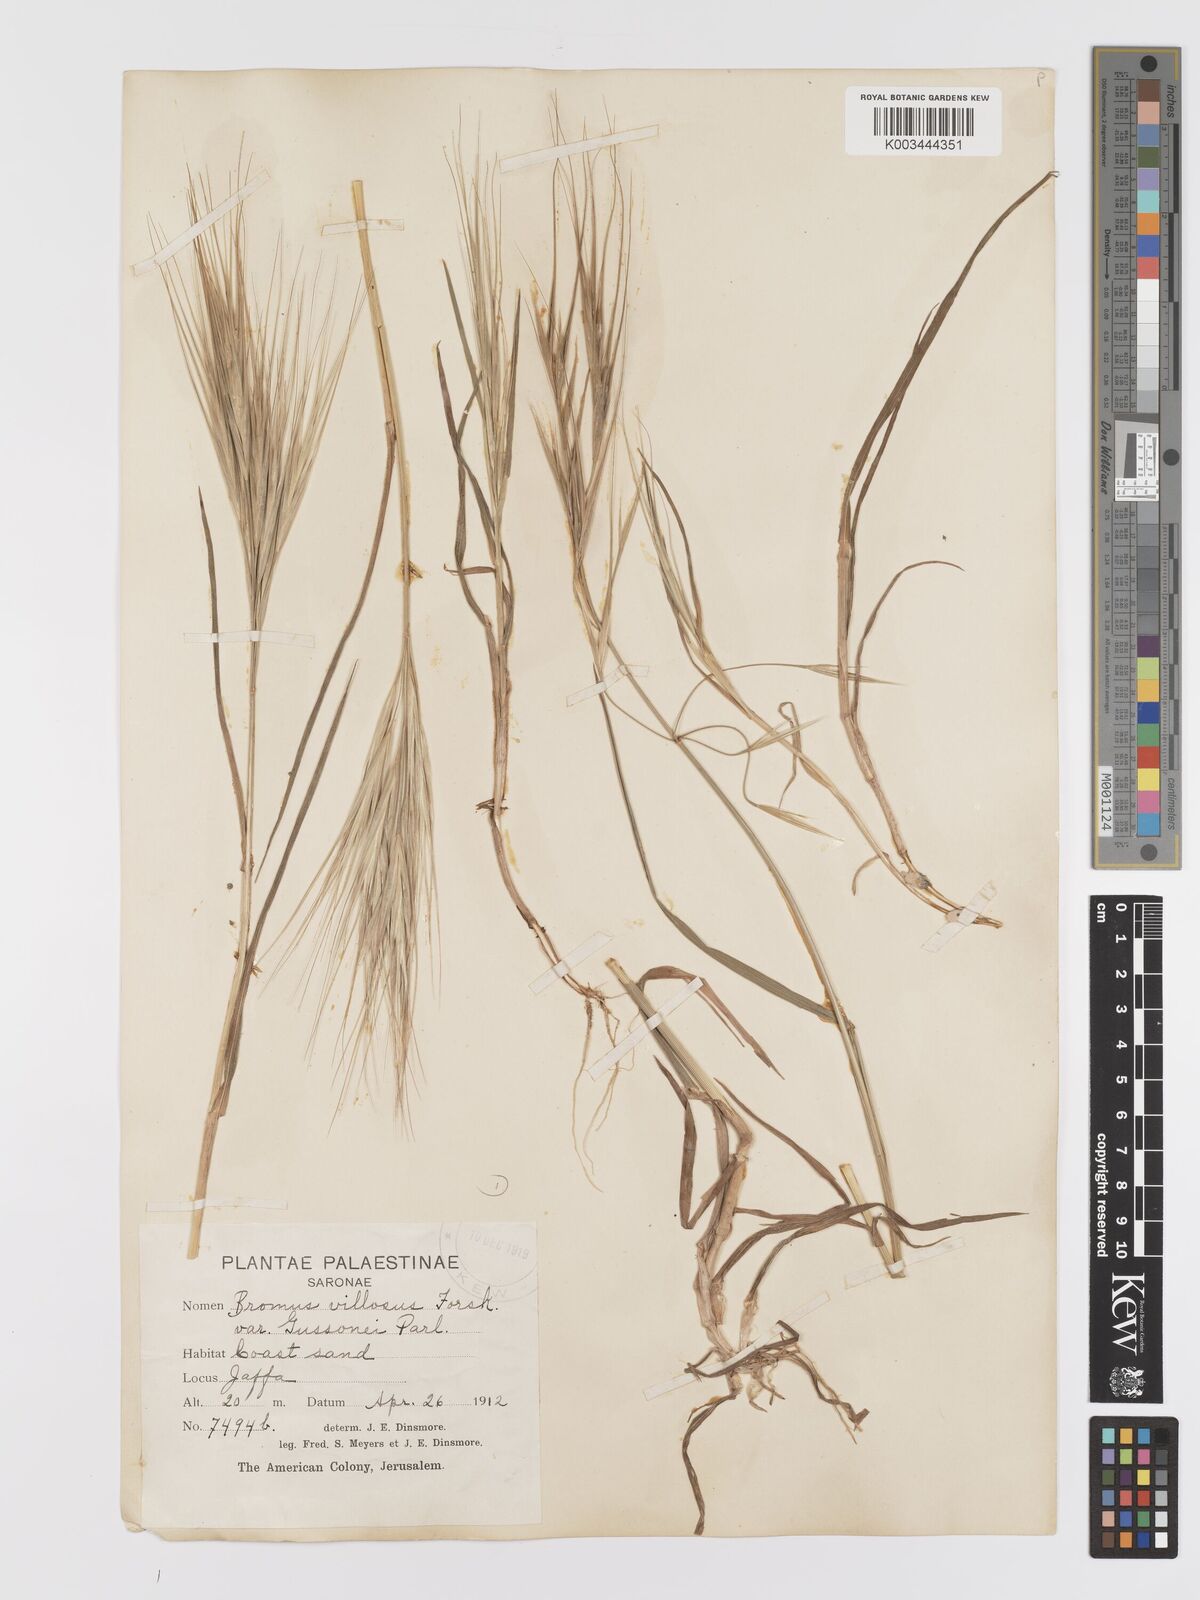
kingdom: Plantae
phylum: Tracheophyta
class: Liliopsida
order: Poales
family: Poaceae
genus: Bromus
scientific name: Bromus diandrus
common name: Ripgut brome
